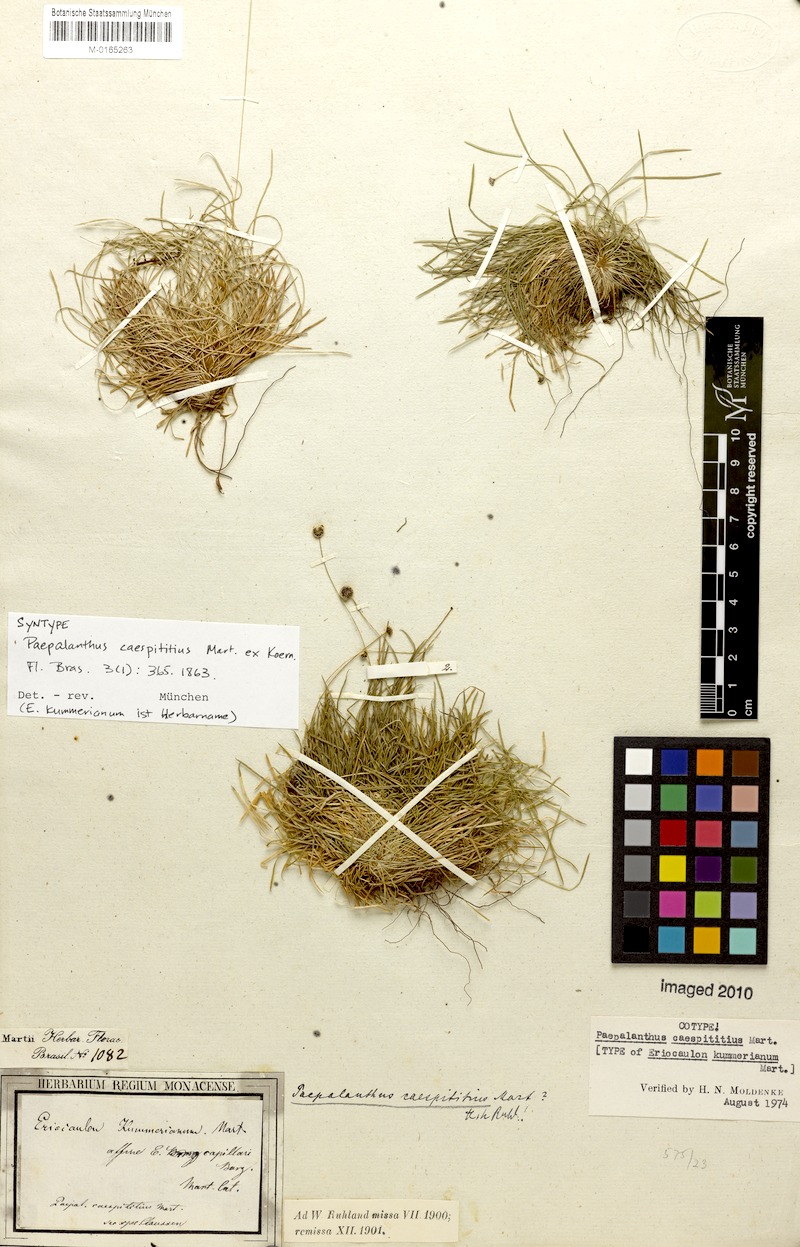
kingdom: Plantae
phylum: Tracheophyta
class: Liliopsida
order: Poales
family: Eriocaulaceae
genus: Paepalanthus
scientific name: Paepalanthus caespititius
